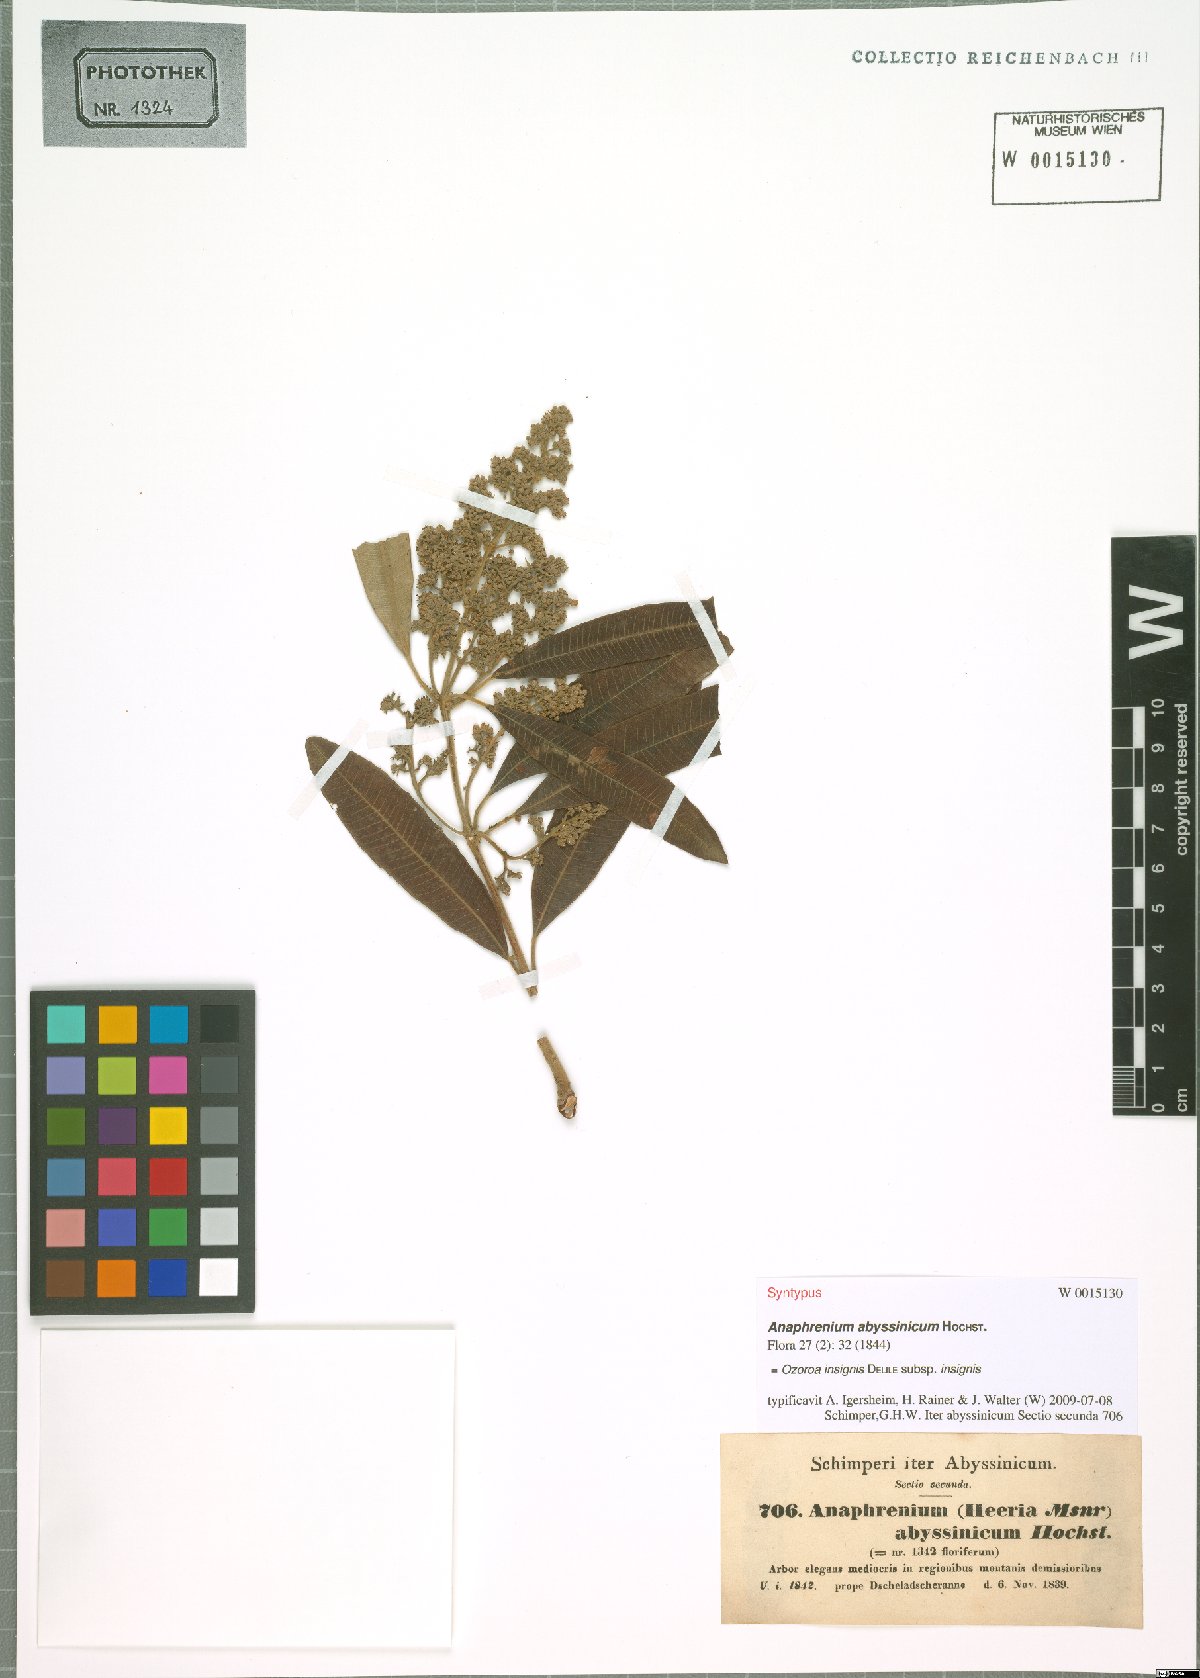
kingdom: Plantae
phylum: Tracheophyta
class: Magnoliopsida
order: Sapindales
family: Anacardiaceae
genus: Ozoroa
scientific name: Ozoroa insignis
